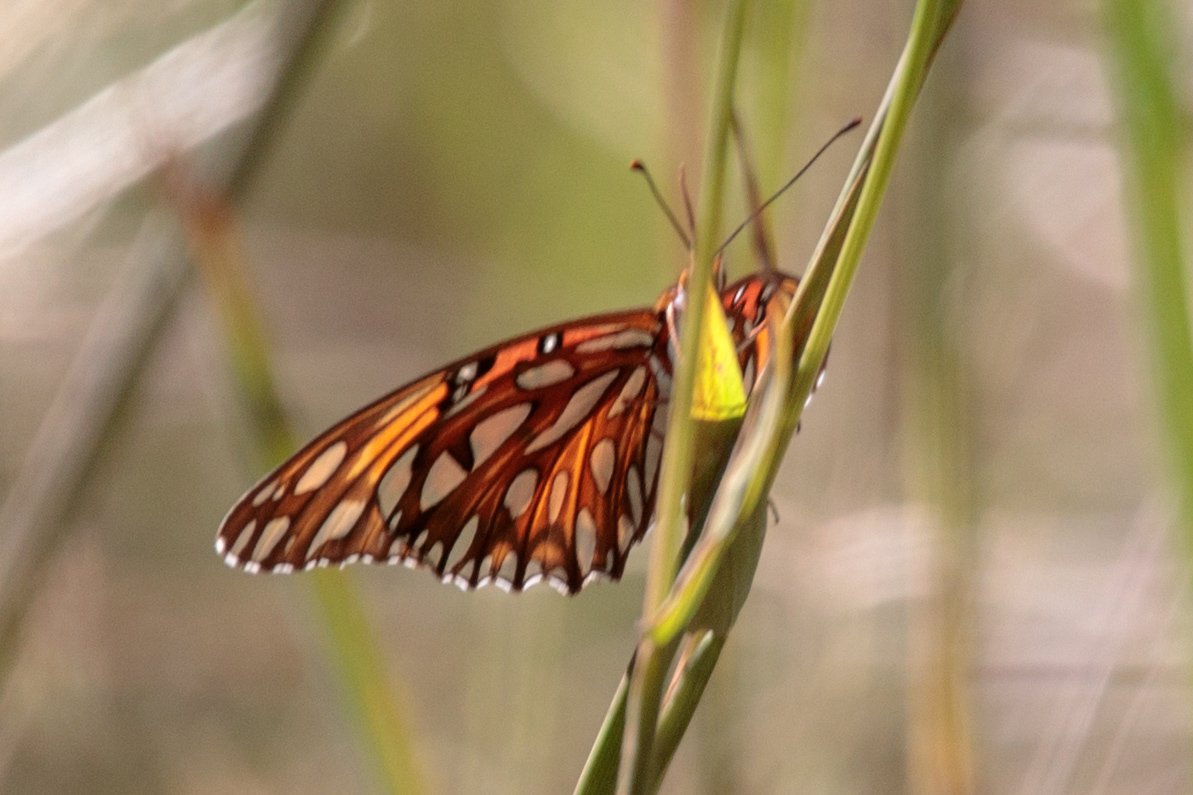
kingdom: Animalia
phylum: Arthropoda
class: Insecta
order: Lepidoptera
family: Nymphalidae
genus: Dione
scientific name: Dione vanillae
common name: Gulf Fritillary
